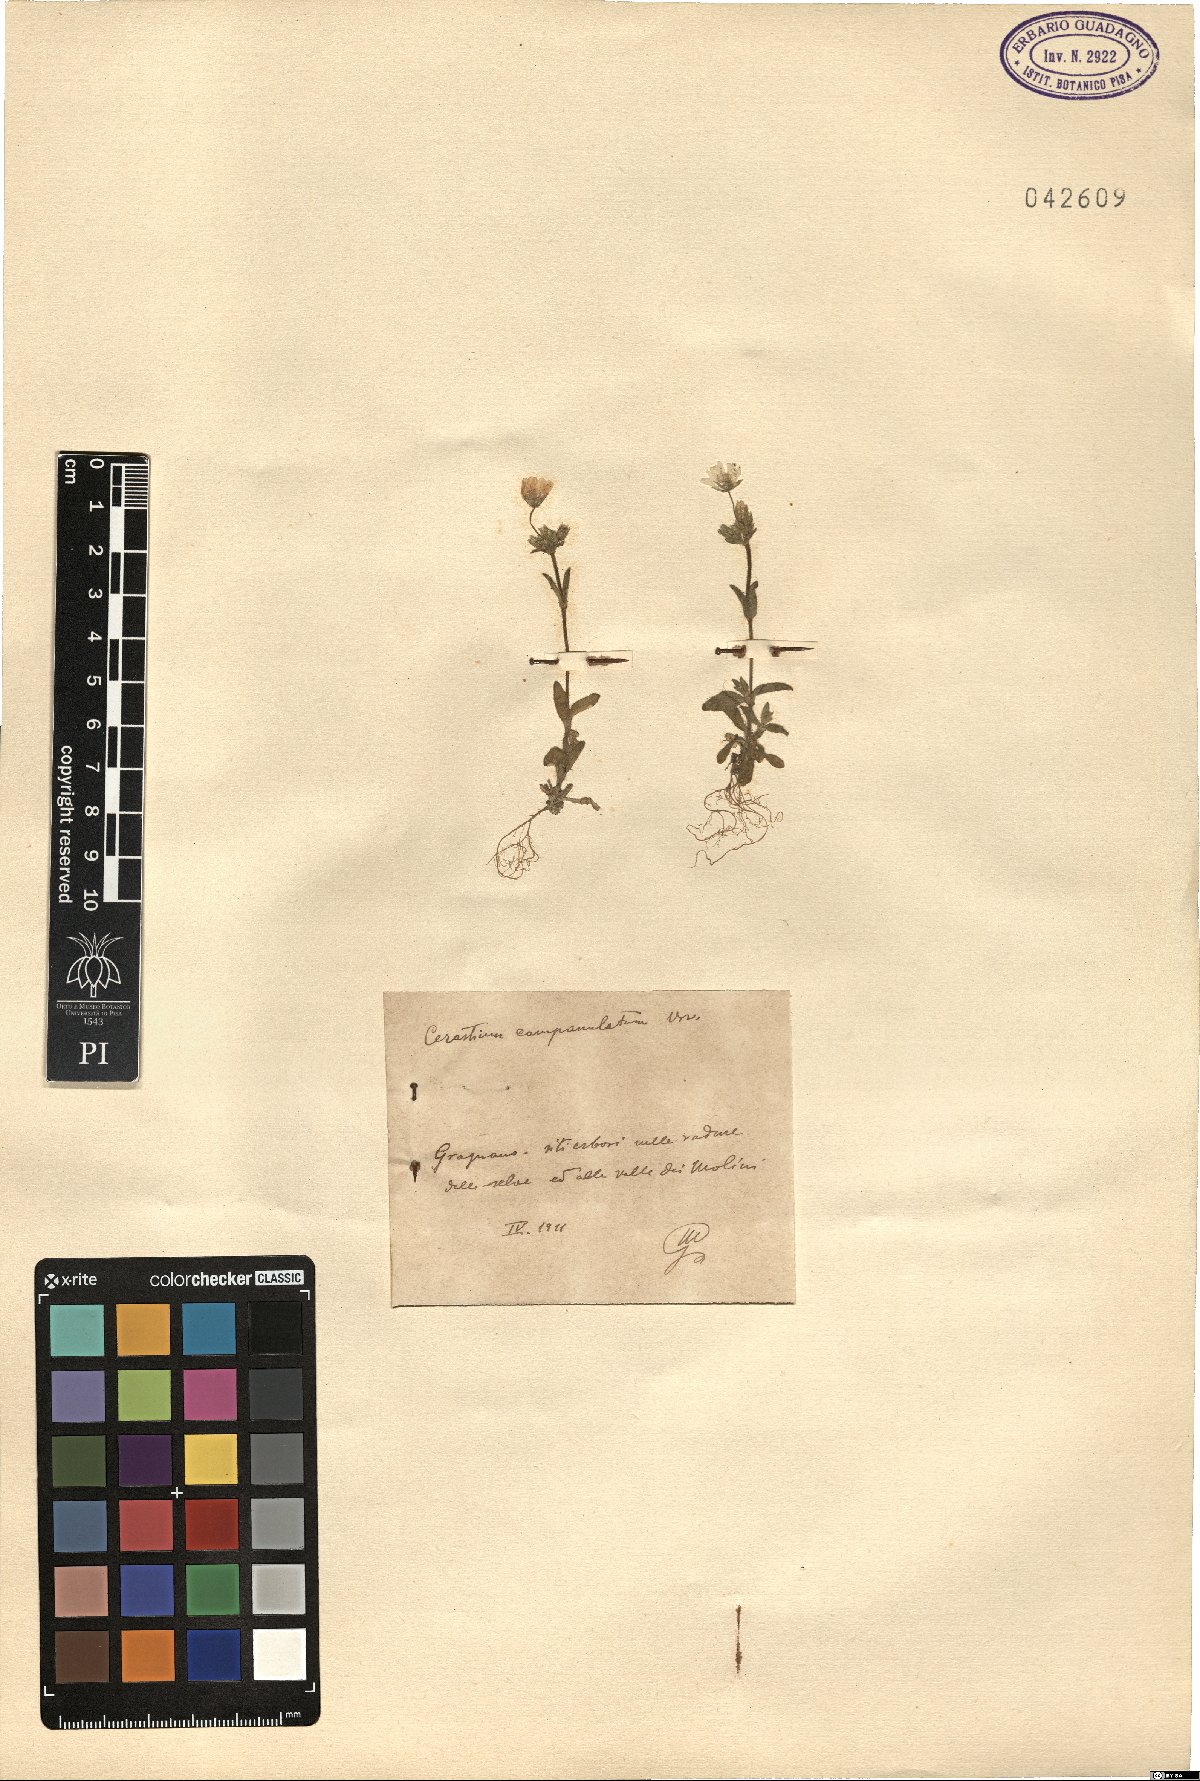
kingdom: Plantae
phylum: Tracheophyta
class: Magnoliopsida
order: Caryophyllales
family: Caryophyllaceae
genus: Cerastium
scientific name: Cerastium ligusticum
